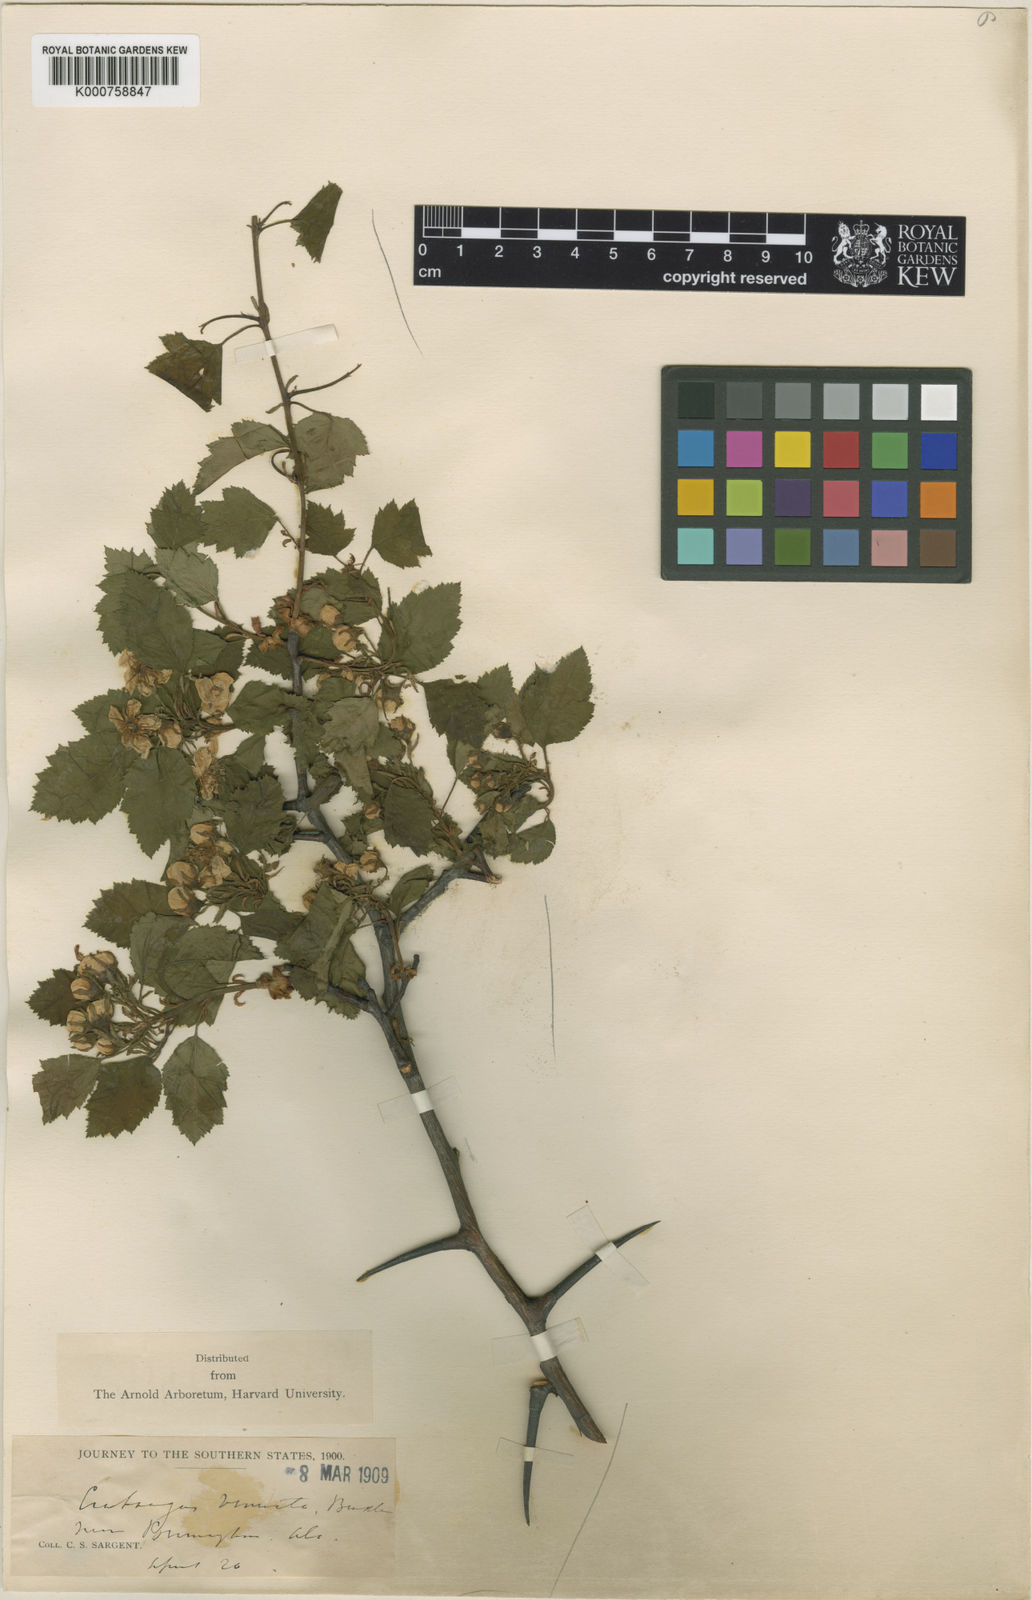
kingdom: Plantae
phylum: Tracheophyta
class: Magnoliopsida
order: Rosales
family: Rosaceae
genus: Crataegus
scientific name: Crataegus venusta
